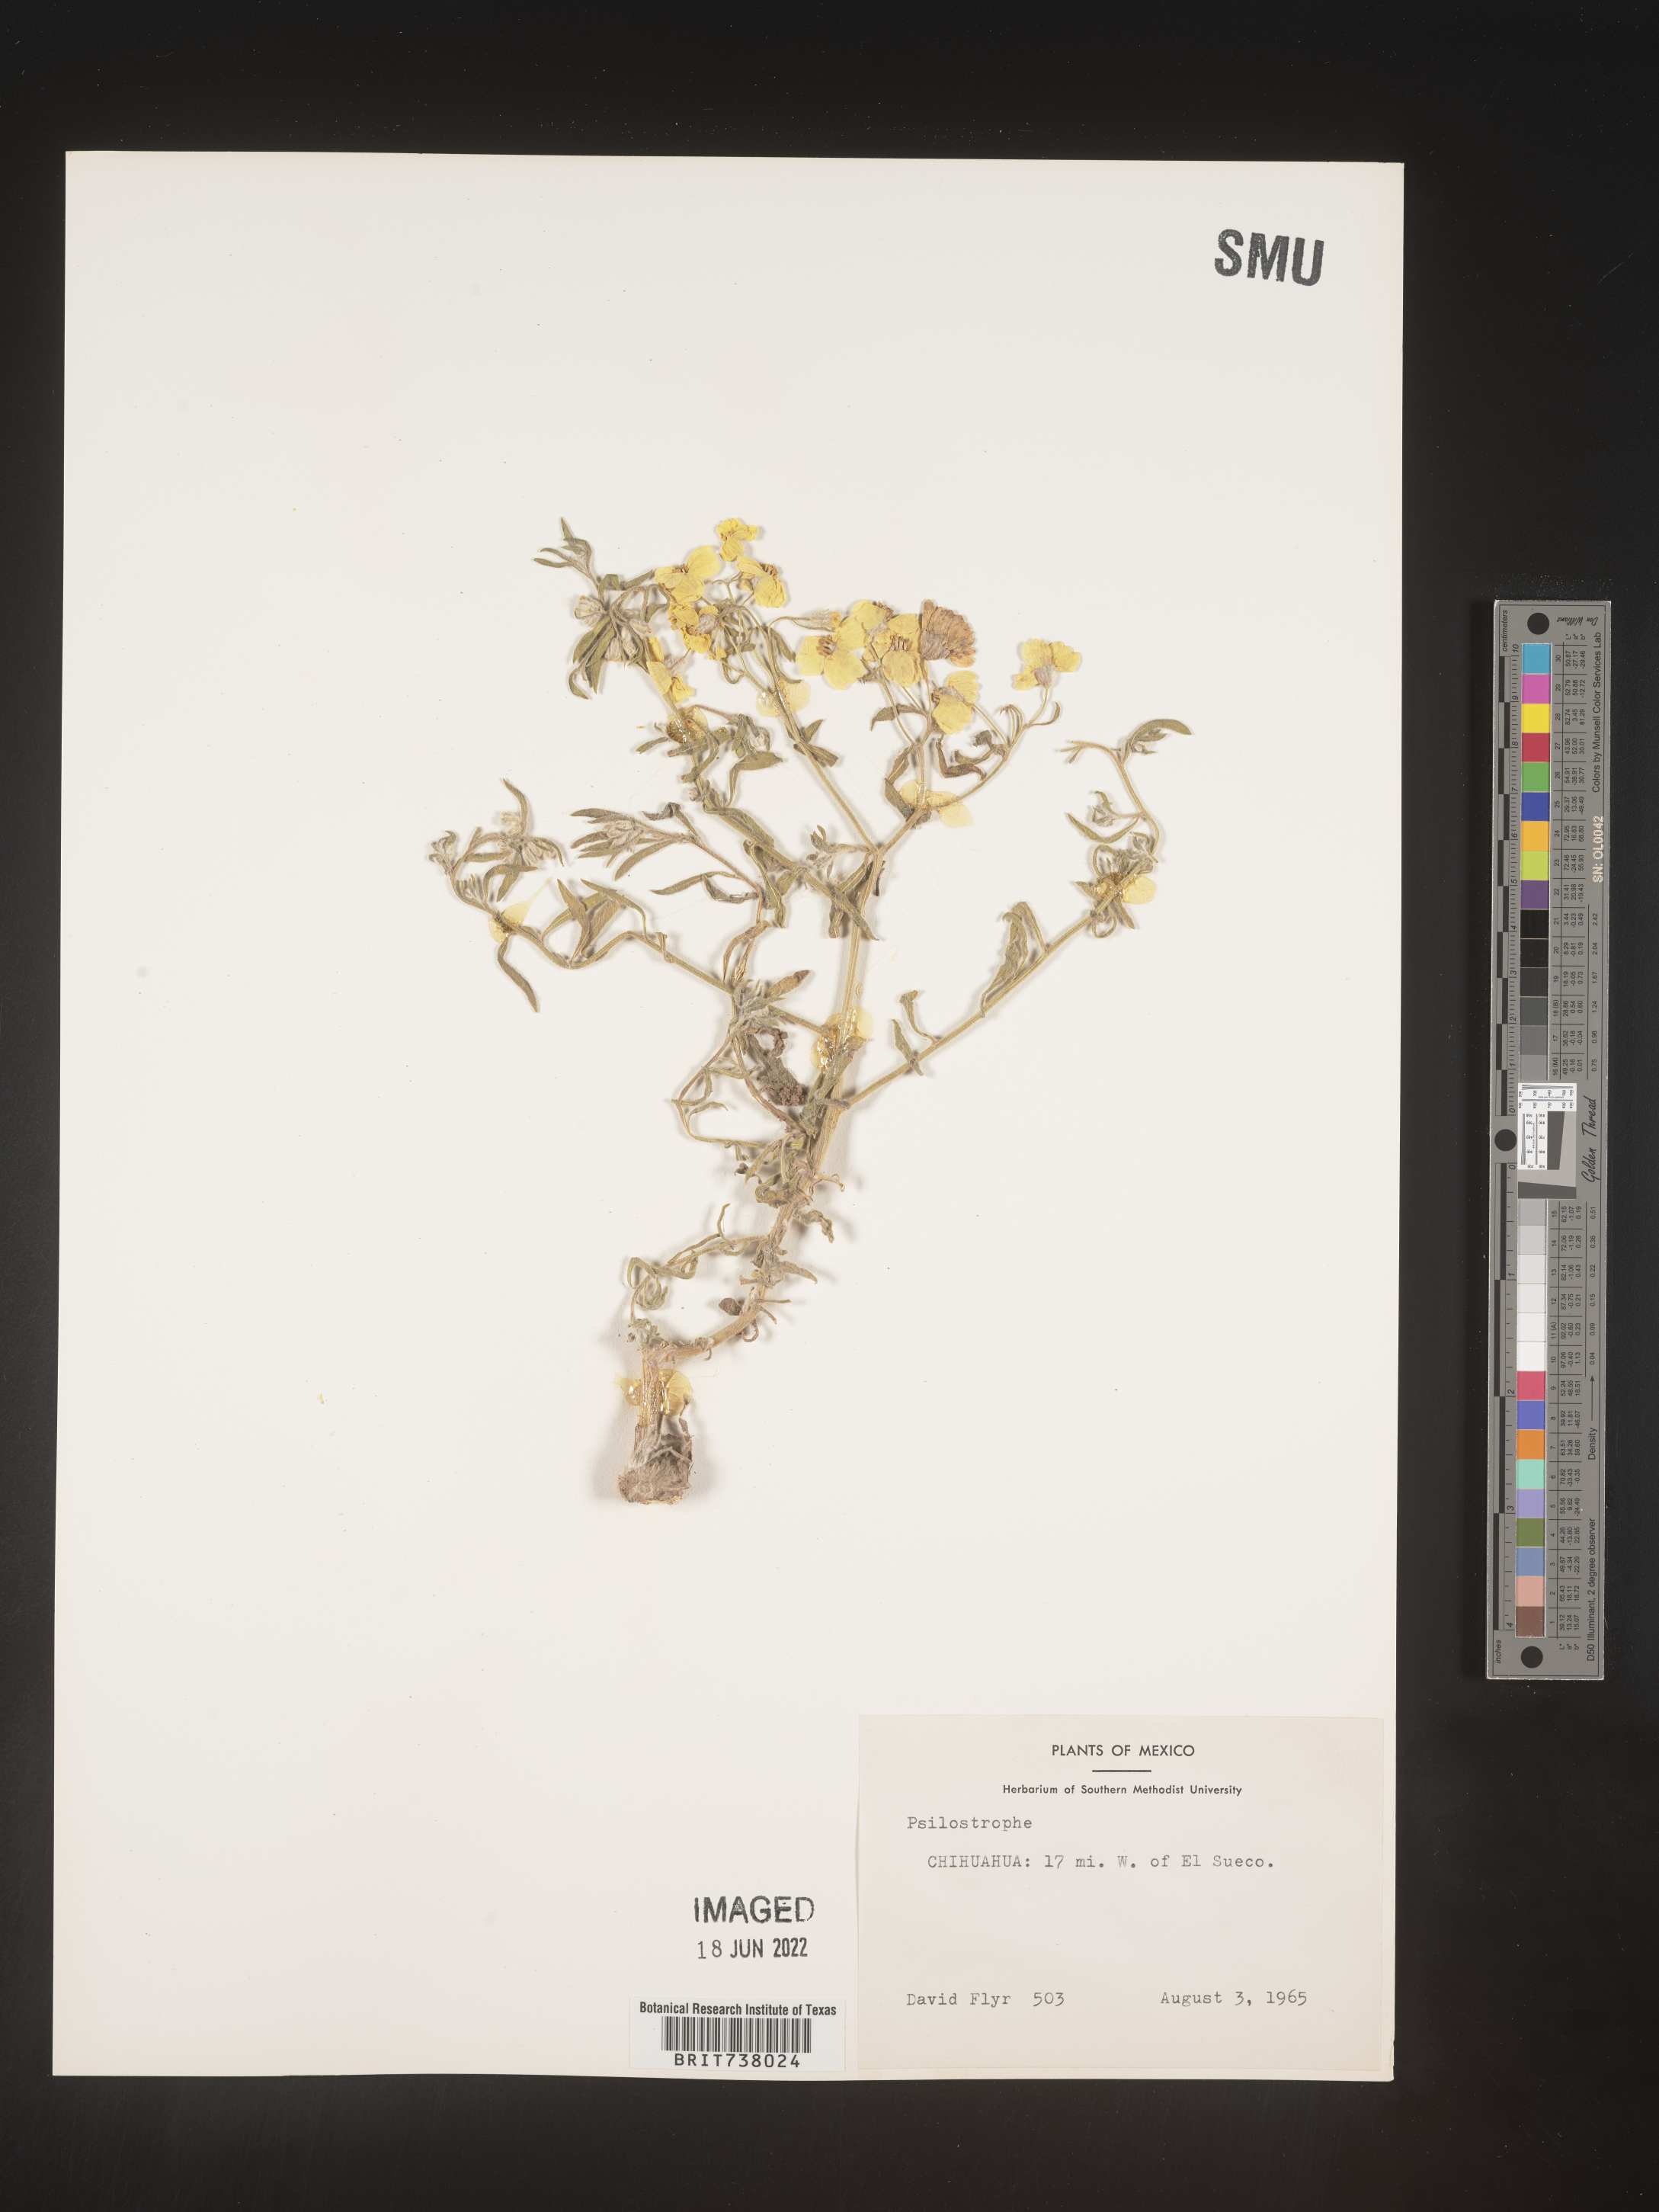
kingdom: Plantae
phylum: Tracheophyta
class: Magnoliopsida
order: Asterales
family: Asteraceae
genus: Psilostrophe
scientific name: Psilostrophe
